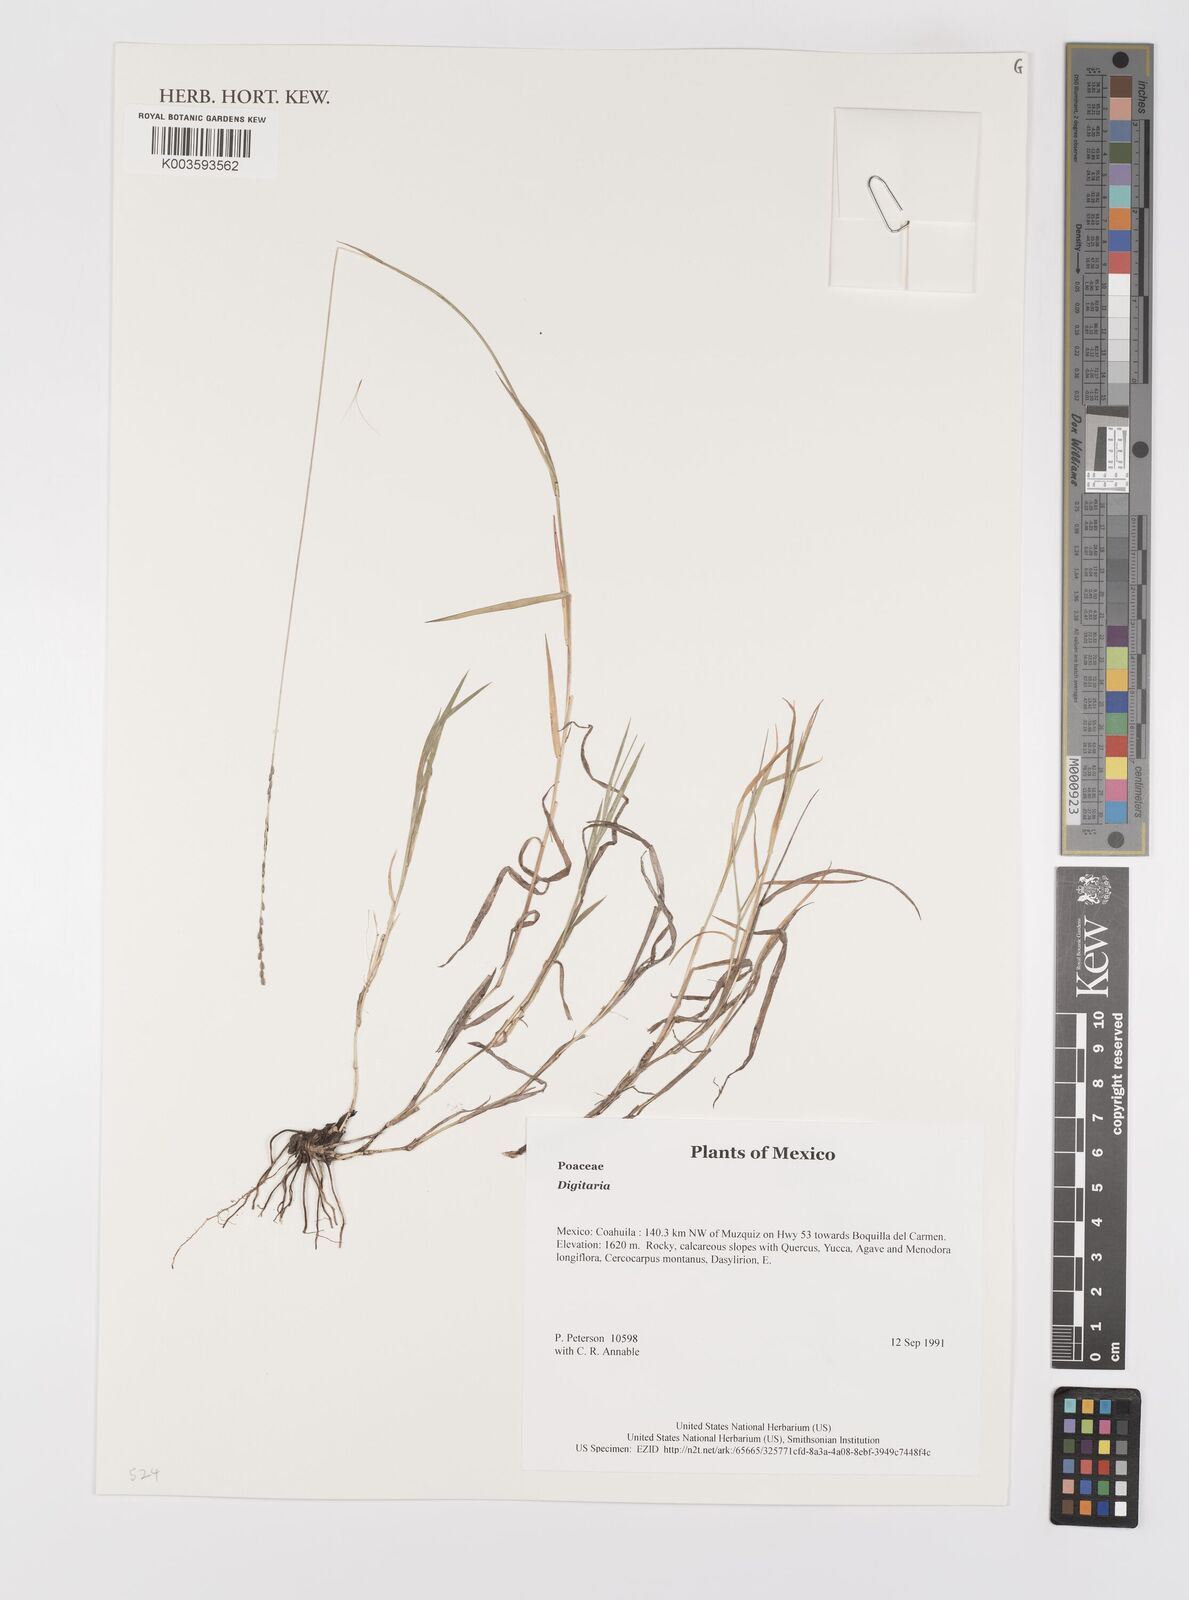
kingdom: Plantae
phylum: Tracheophyta
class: Liliopsida
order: Poales
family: Poaceae
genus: Digitaria
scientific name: Digitaria spec
